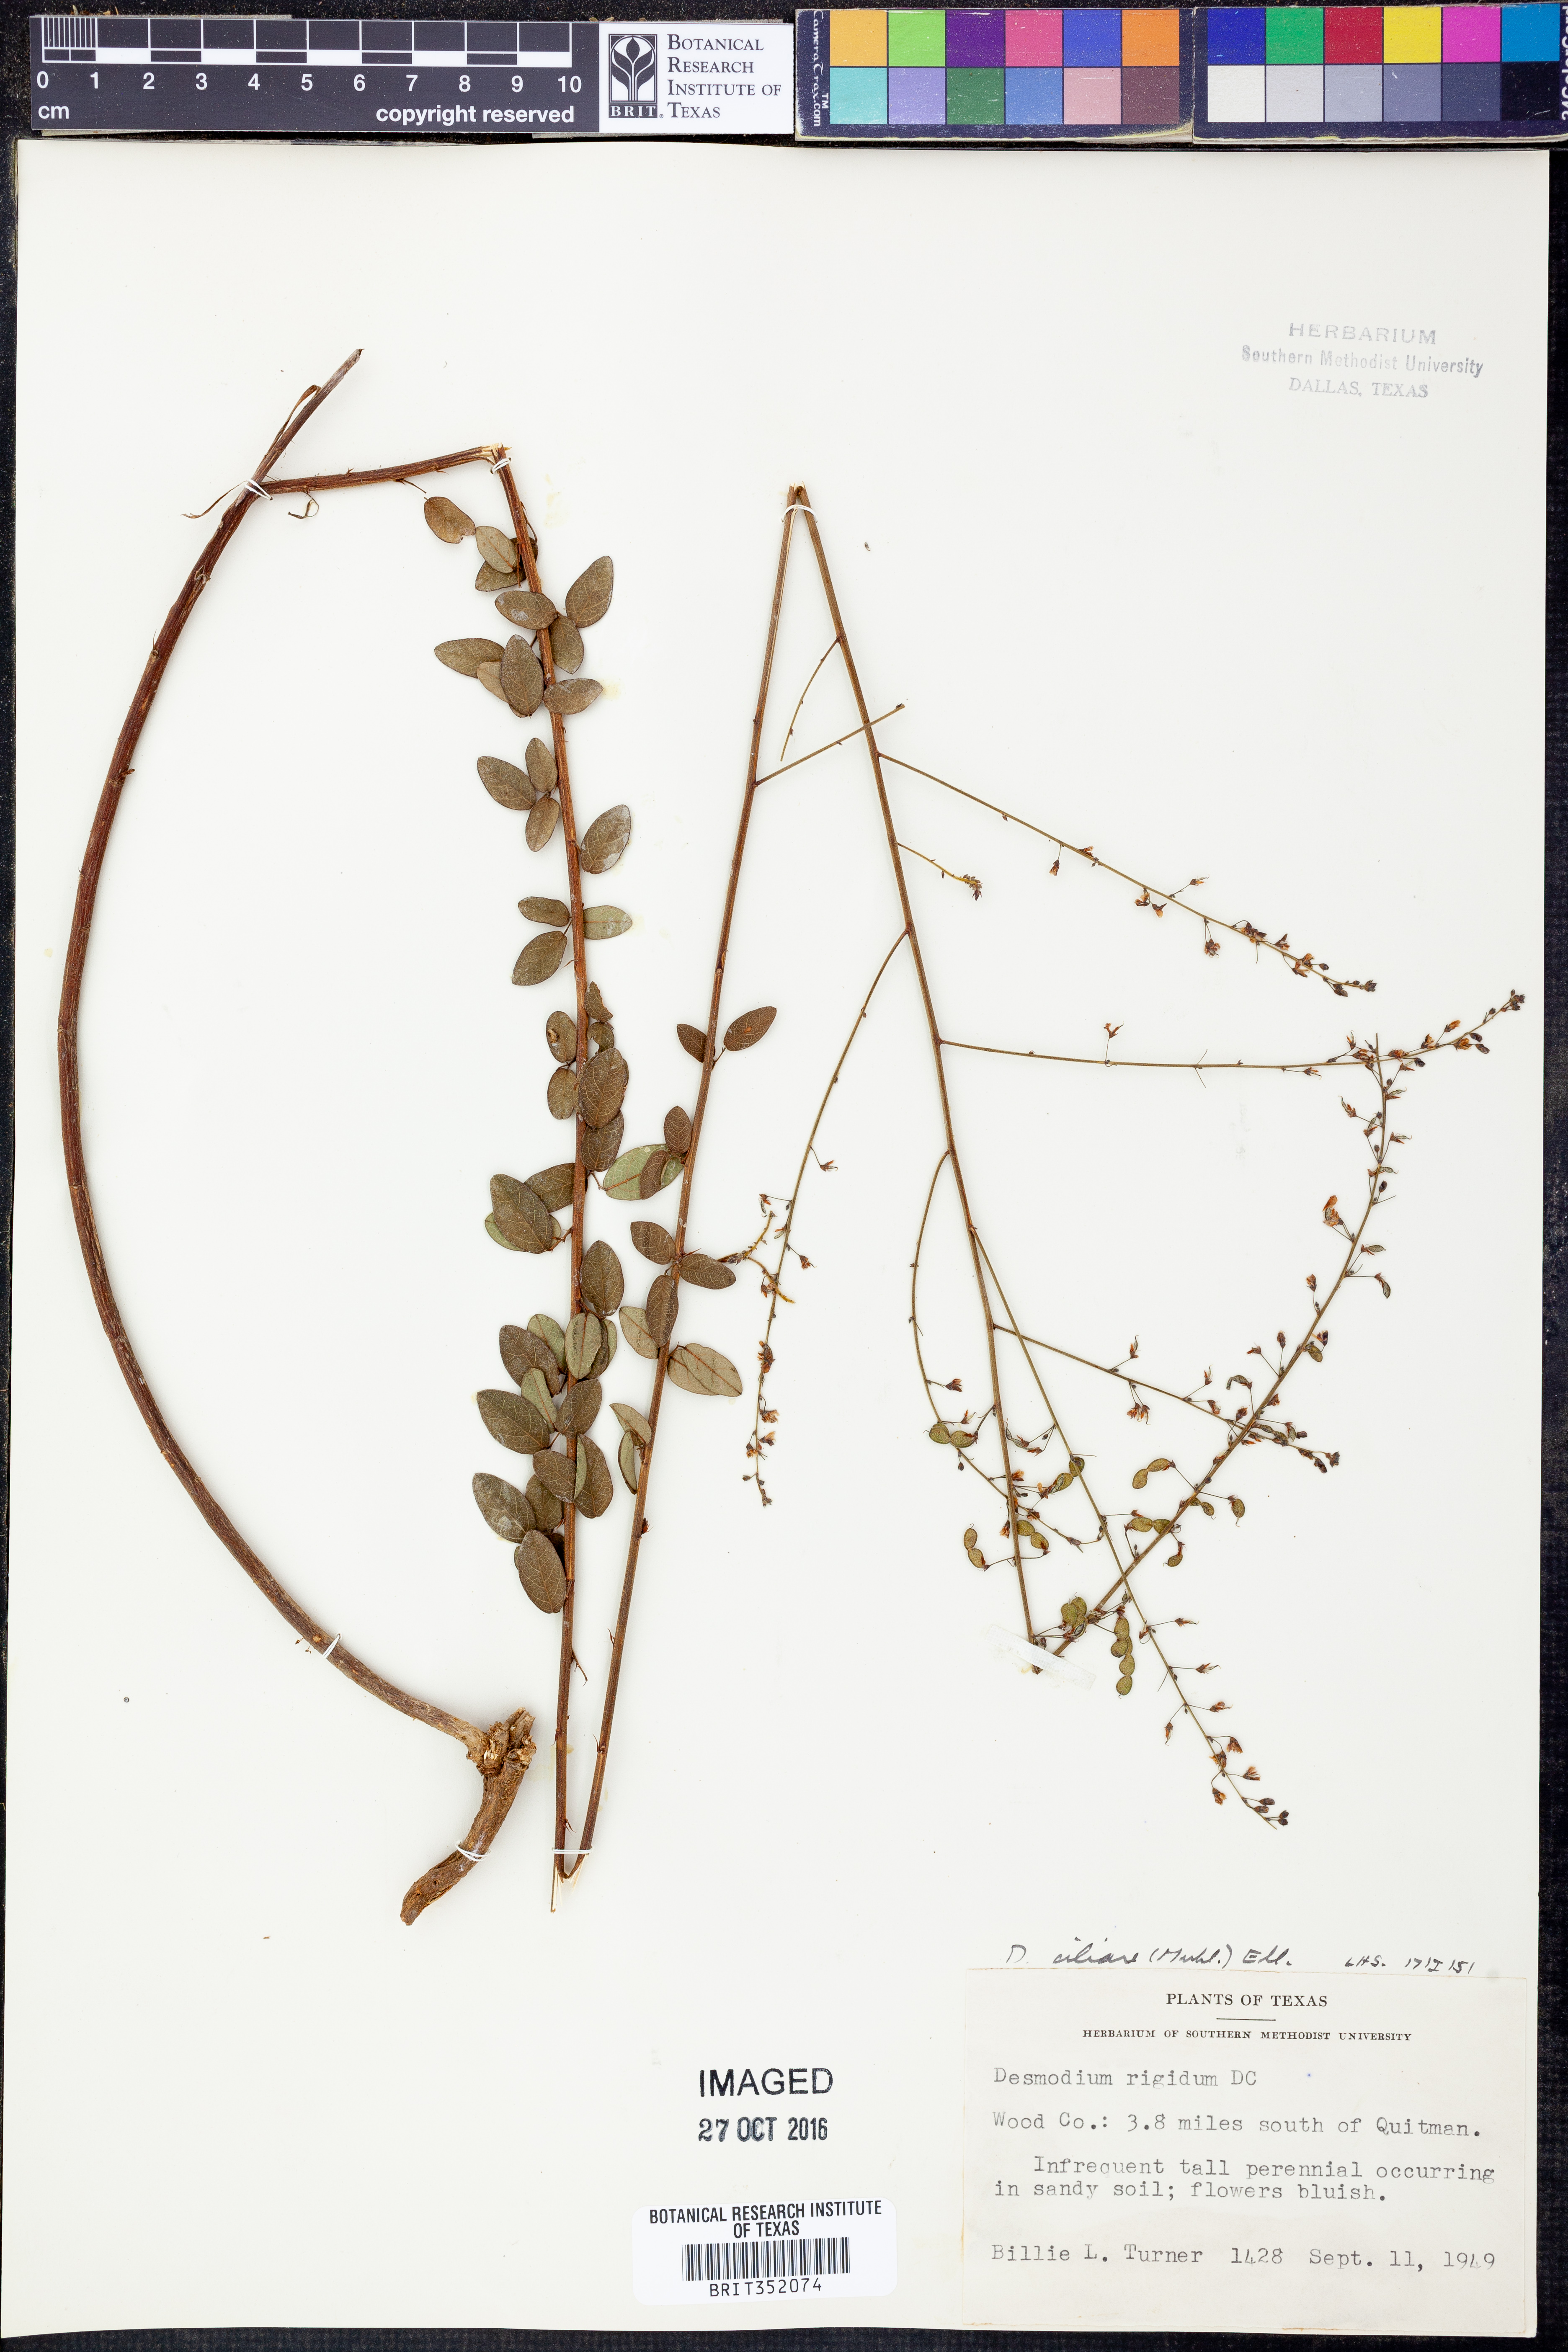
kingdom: Plantae
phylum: Tracheophyta
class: Magnoliopsida
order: Fabales
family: Fabaceae
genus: Desmodium
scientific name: Desmodium ciliare
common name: Hairy small-leaf ticktrefoil
